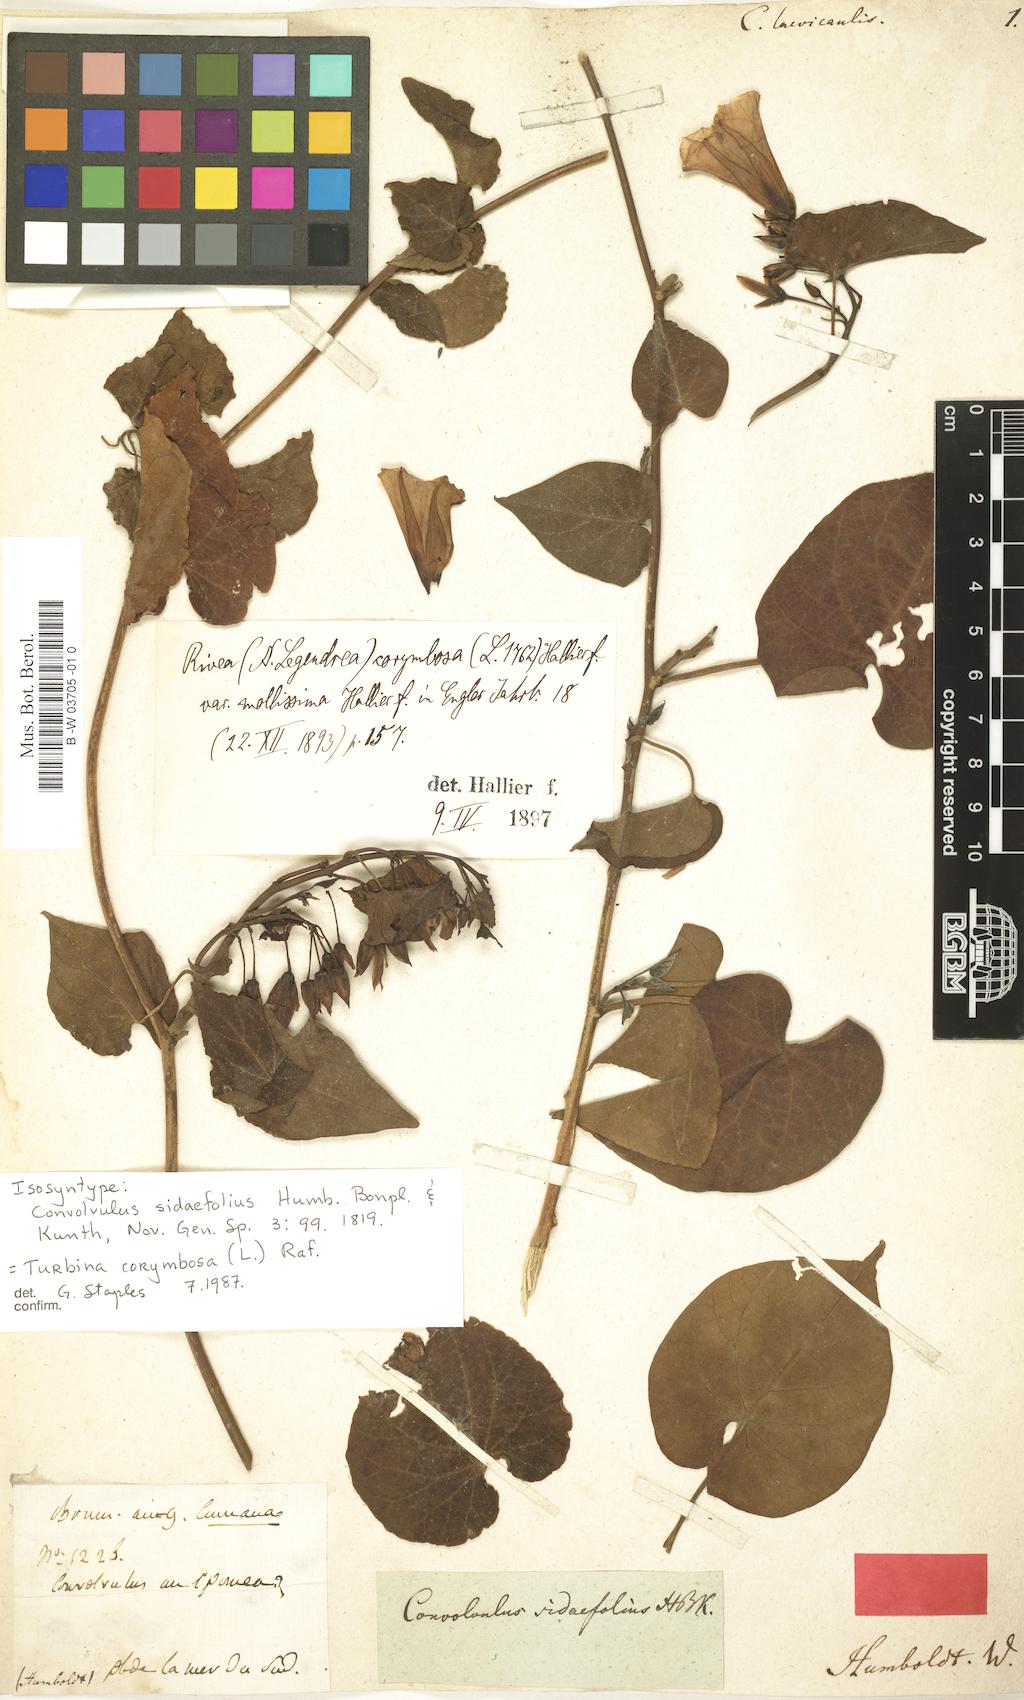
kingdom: Plantae
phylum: Tracheophyta
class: Magnoliopsida
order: Solanales
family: Convolvulaceae
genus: Ipomoea
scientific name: Ipomoea corymbosa
